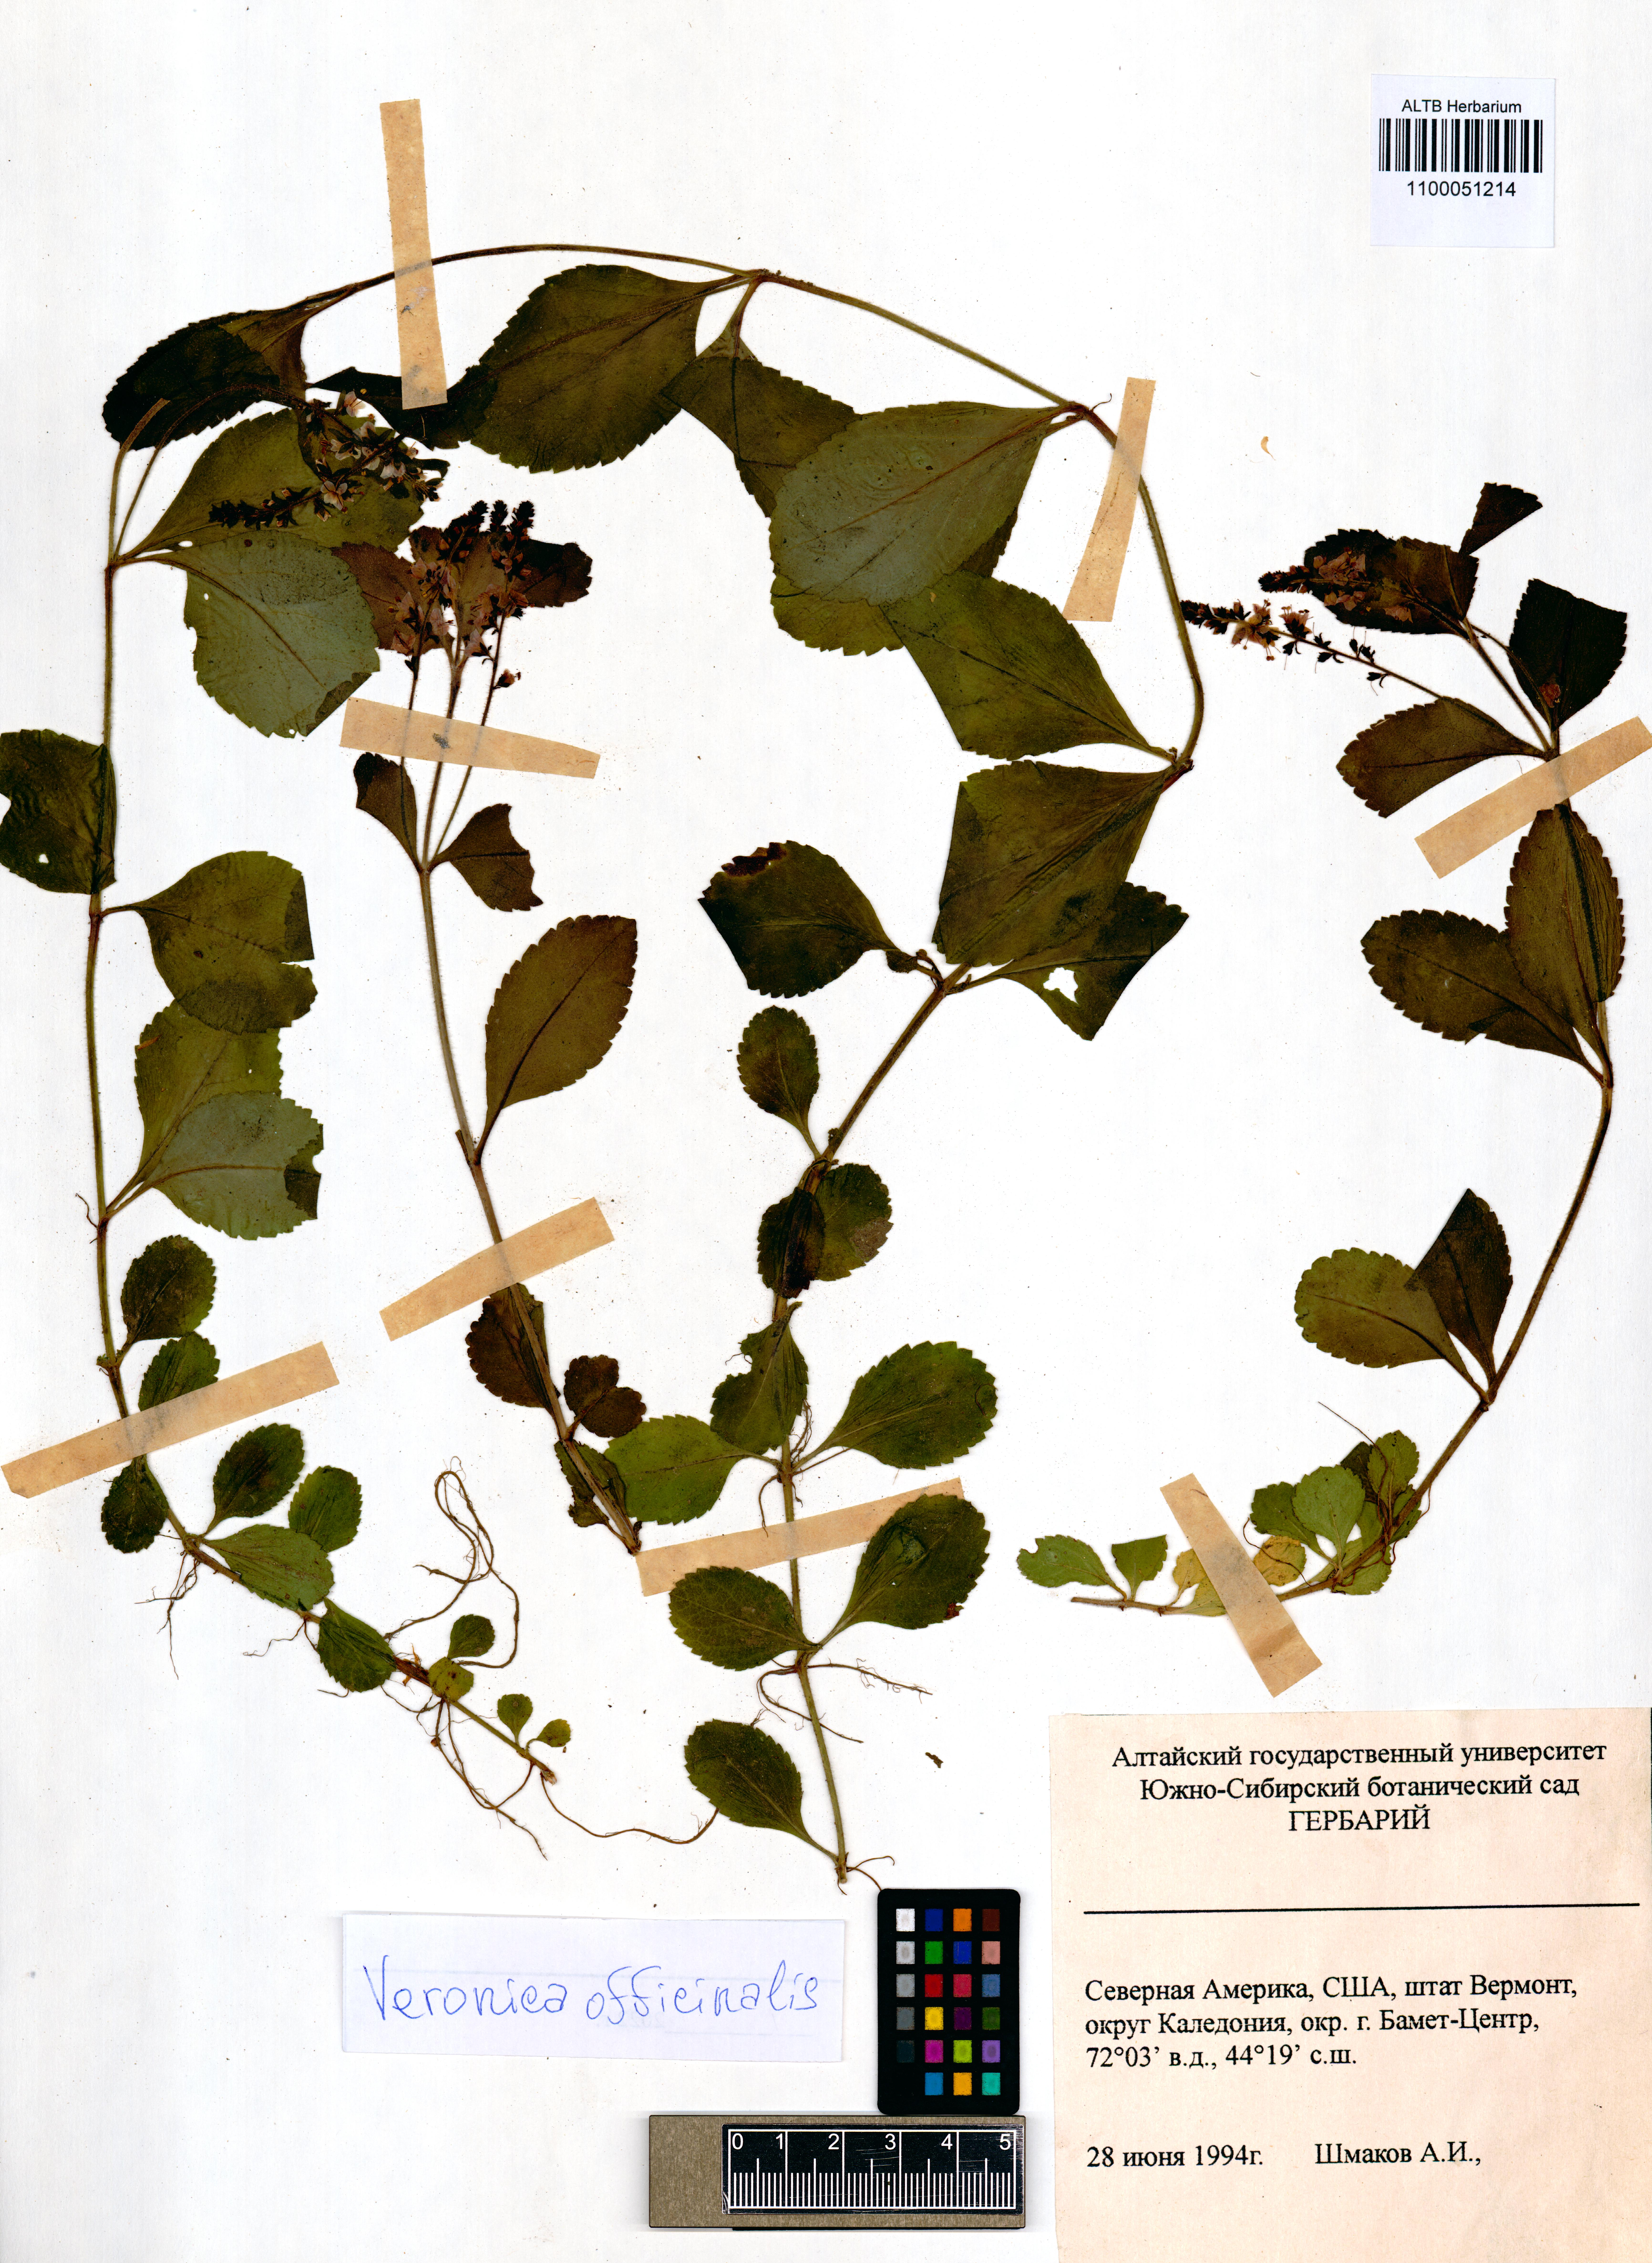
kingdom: Plantae
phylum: Tracheophyta
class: Magnoliopsida
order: Lamiales
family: Plantaginaceae
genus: Veronica
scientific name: Veronica officinalis
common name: Common speedwell
